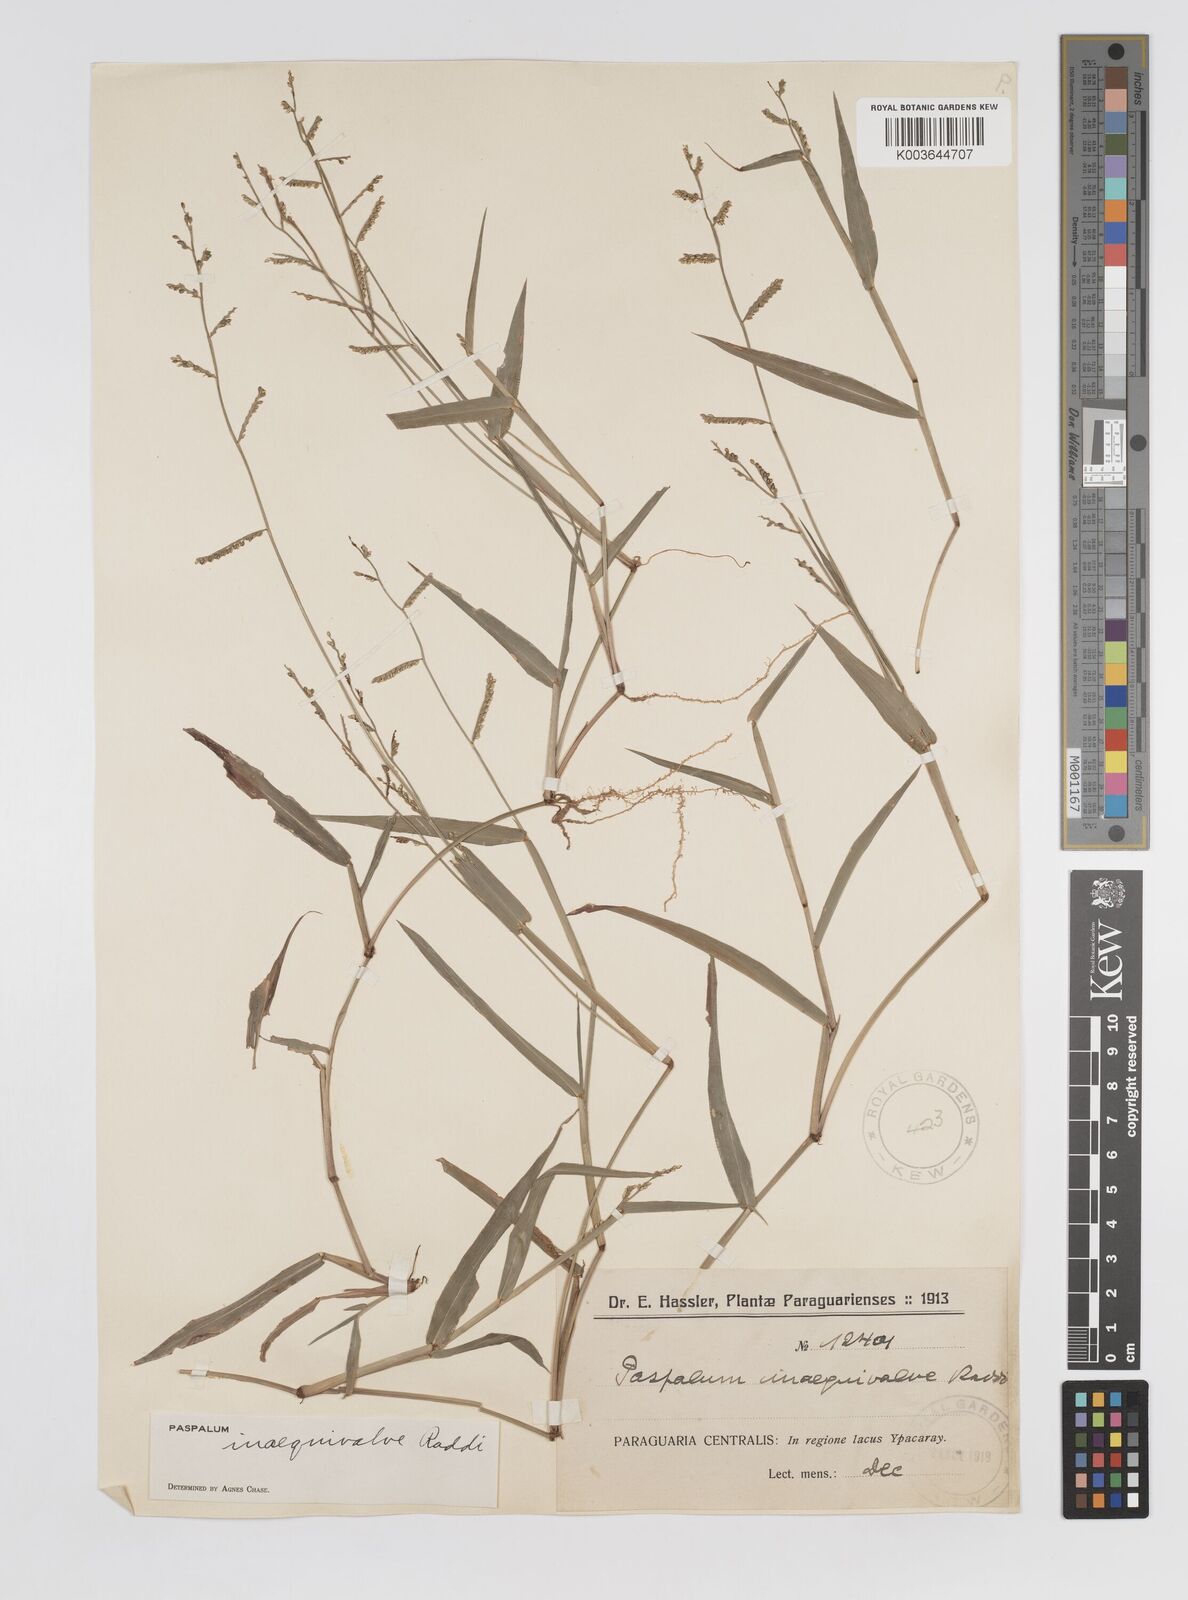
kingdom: Plantae
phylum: Tracheophyta
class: Liliopsida
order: Poales
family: Poaceae
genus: Paspalum
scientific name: Paspalum inaequivalve
